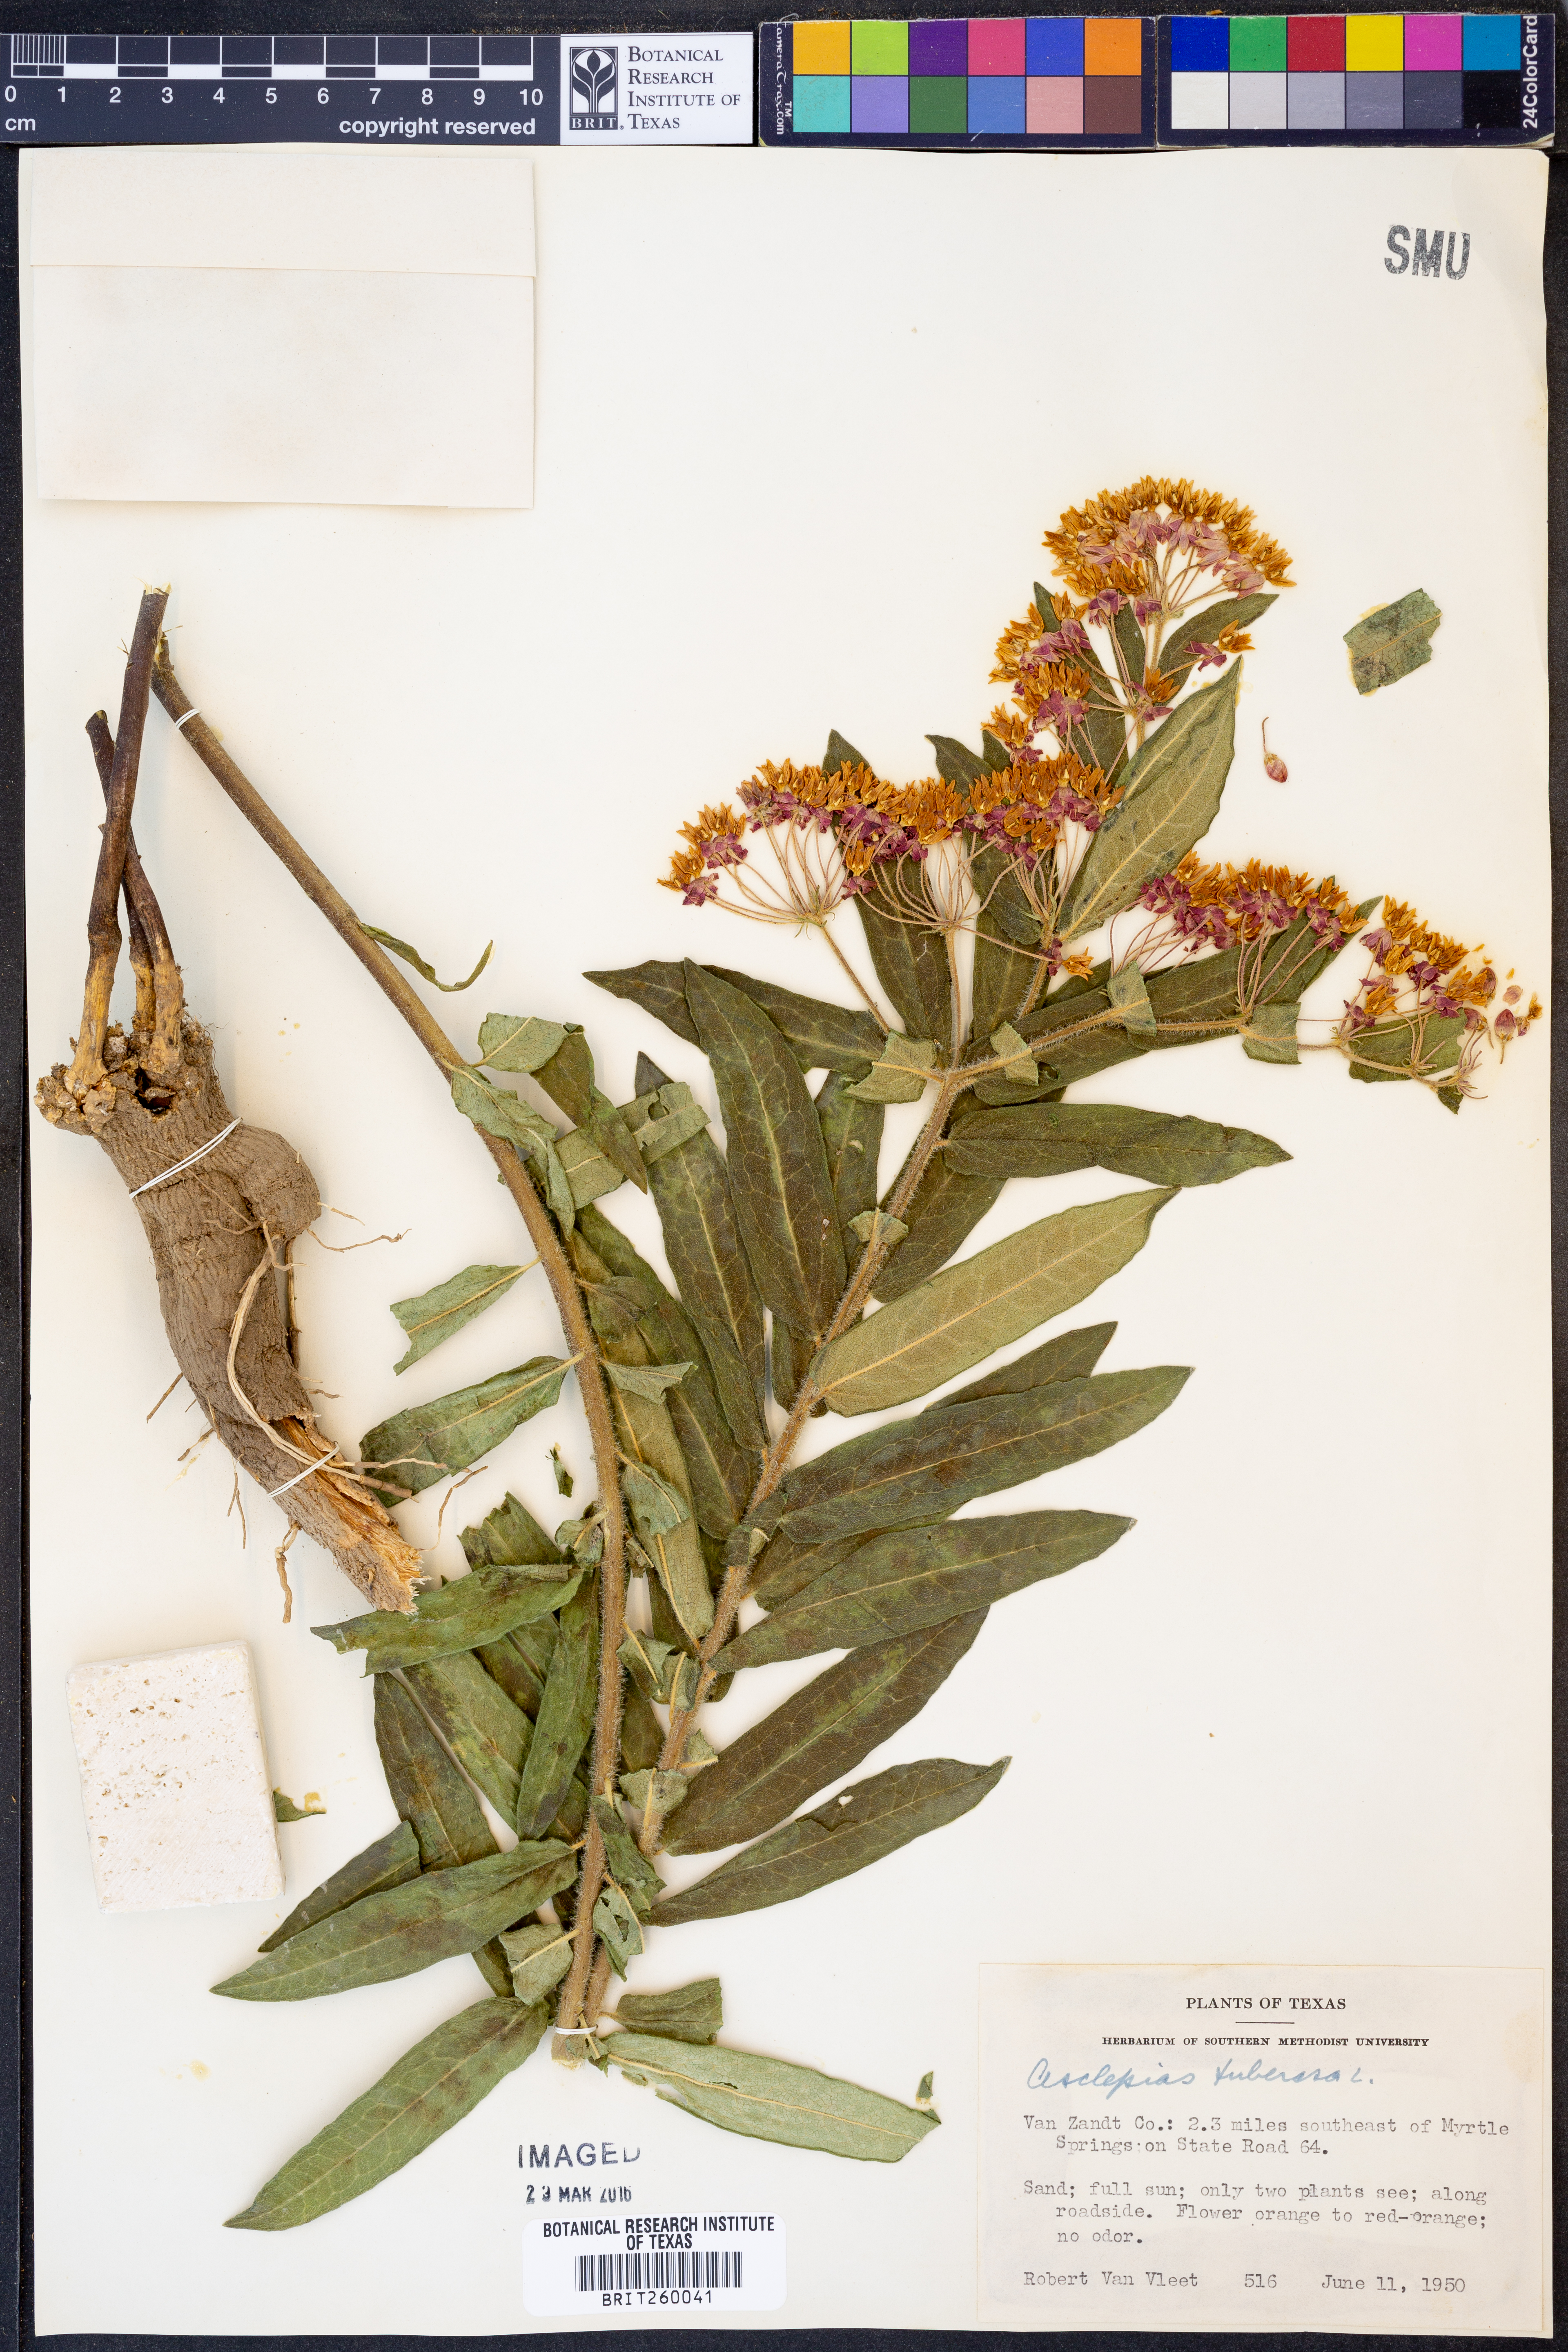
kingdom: Plantae
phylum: Tracheophyta
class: Magnoliopsida
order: Gentianales
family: Apocynaceae
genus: Asclepias
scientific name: Asclepias tuberosa
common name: Butterfly milkweed
